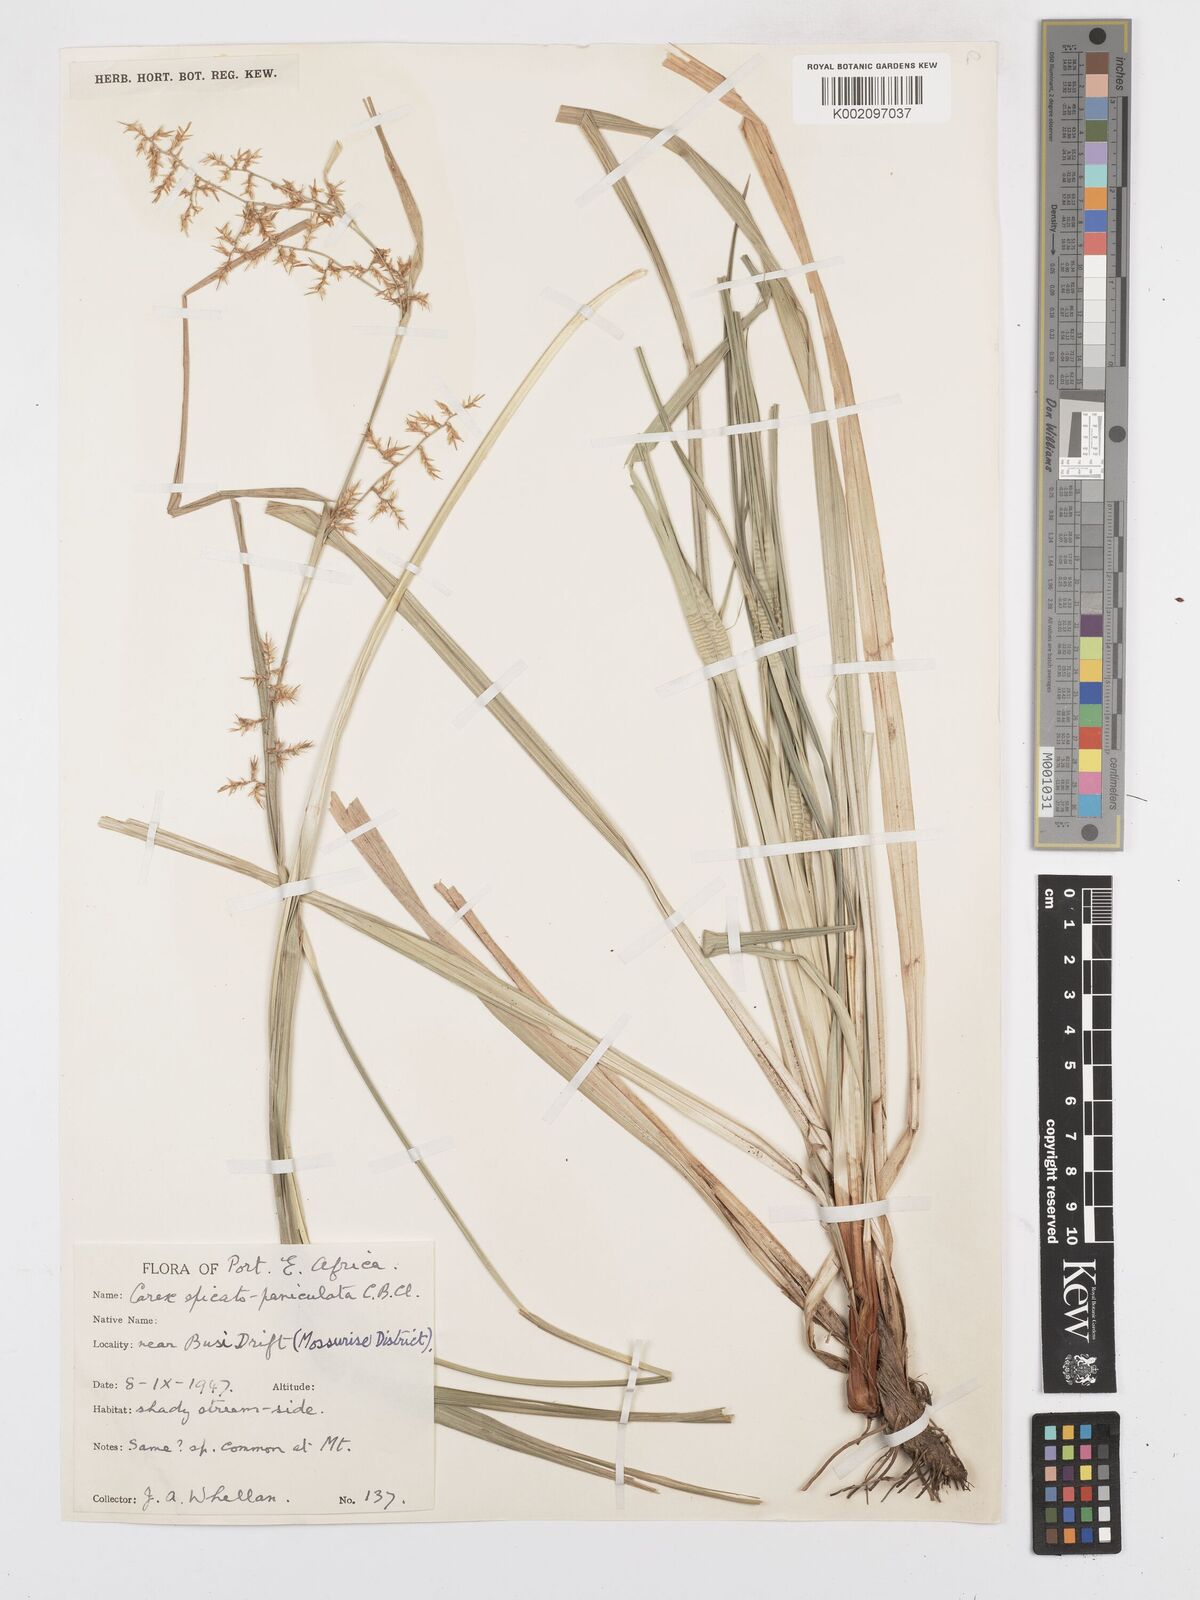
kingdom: Plantae
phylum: Tracheophyta
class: Liliopsida
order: Poales
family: Cyperaceae
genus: Carex
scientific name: Carex spicatopaniculata
